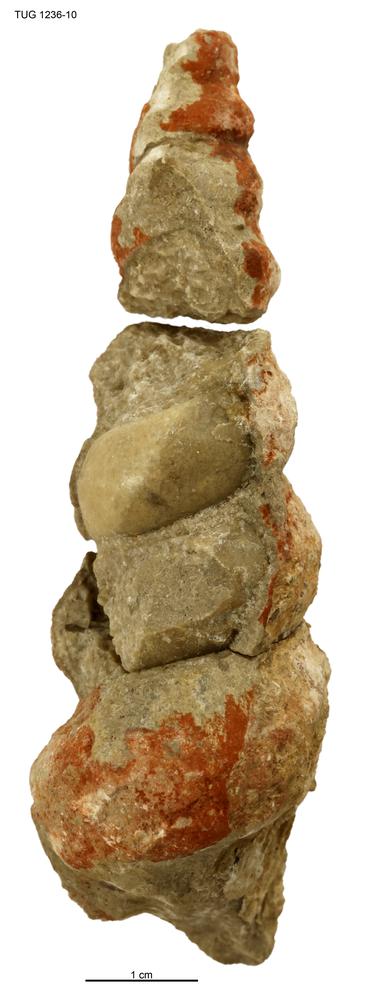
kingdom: Animalia
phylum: Mollusca
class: Gastropoda
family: Lophospiridae
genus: Ectomaria
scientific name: Ectomaria Murchisonia nieszkowskii
